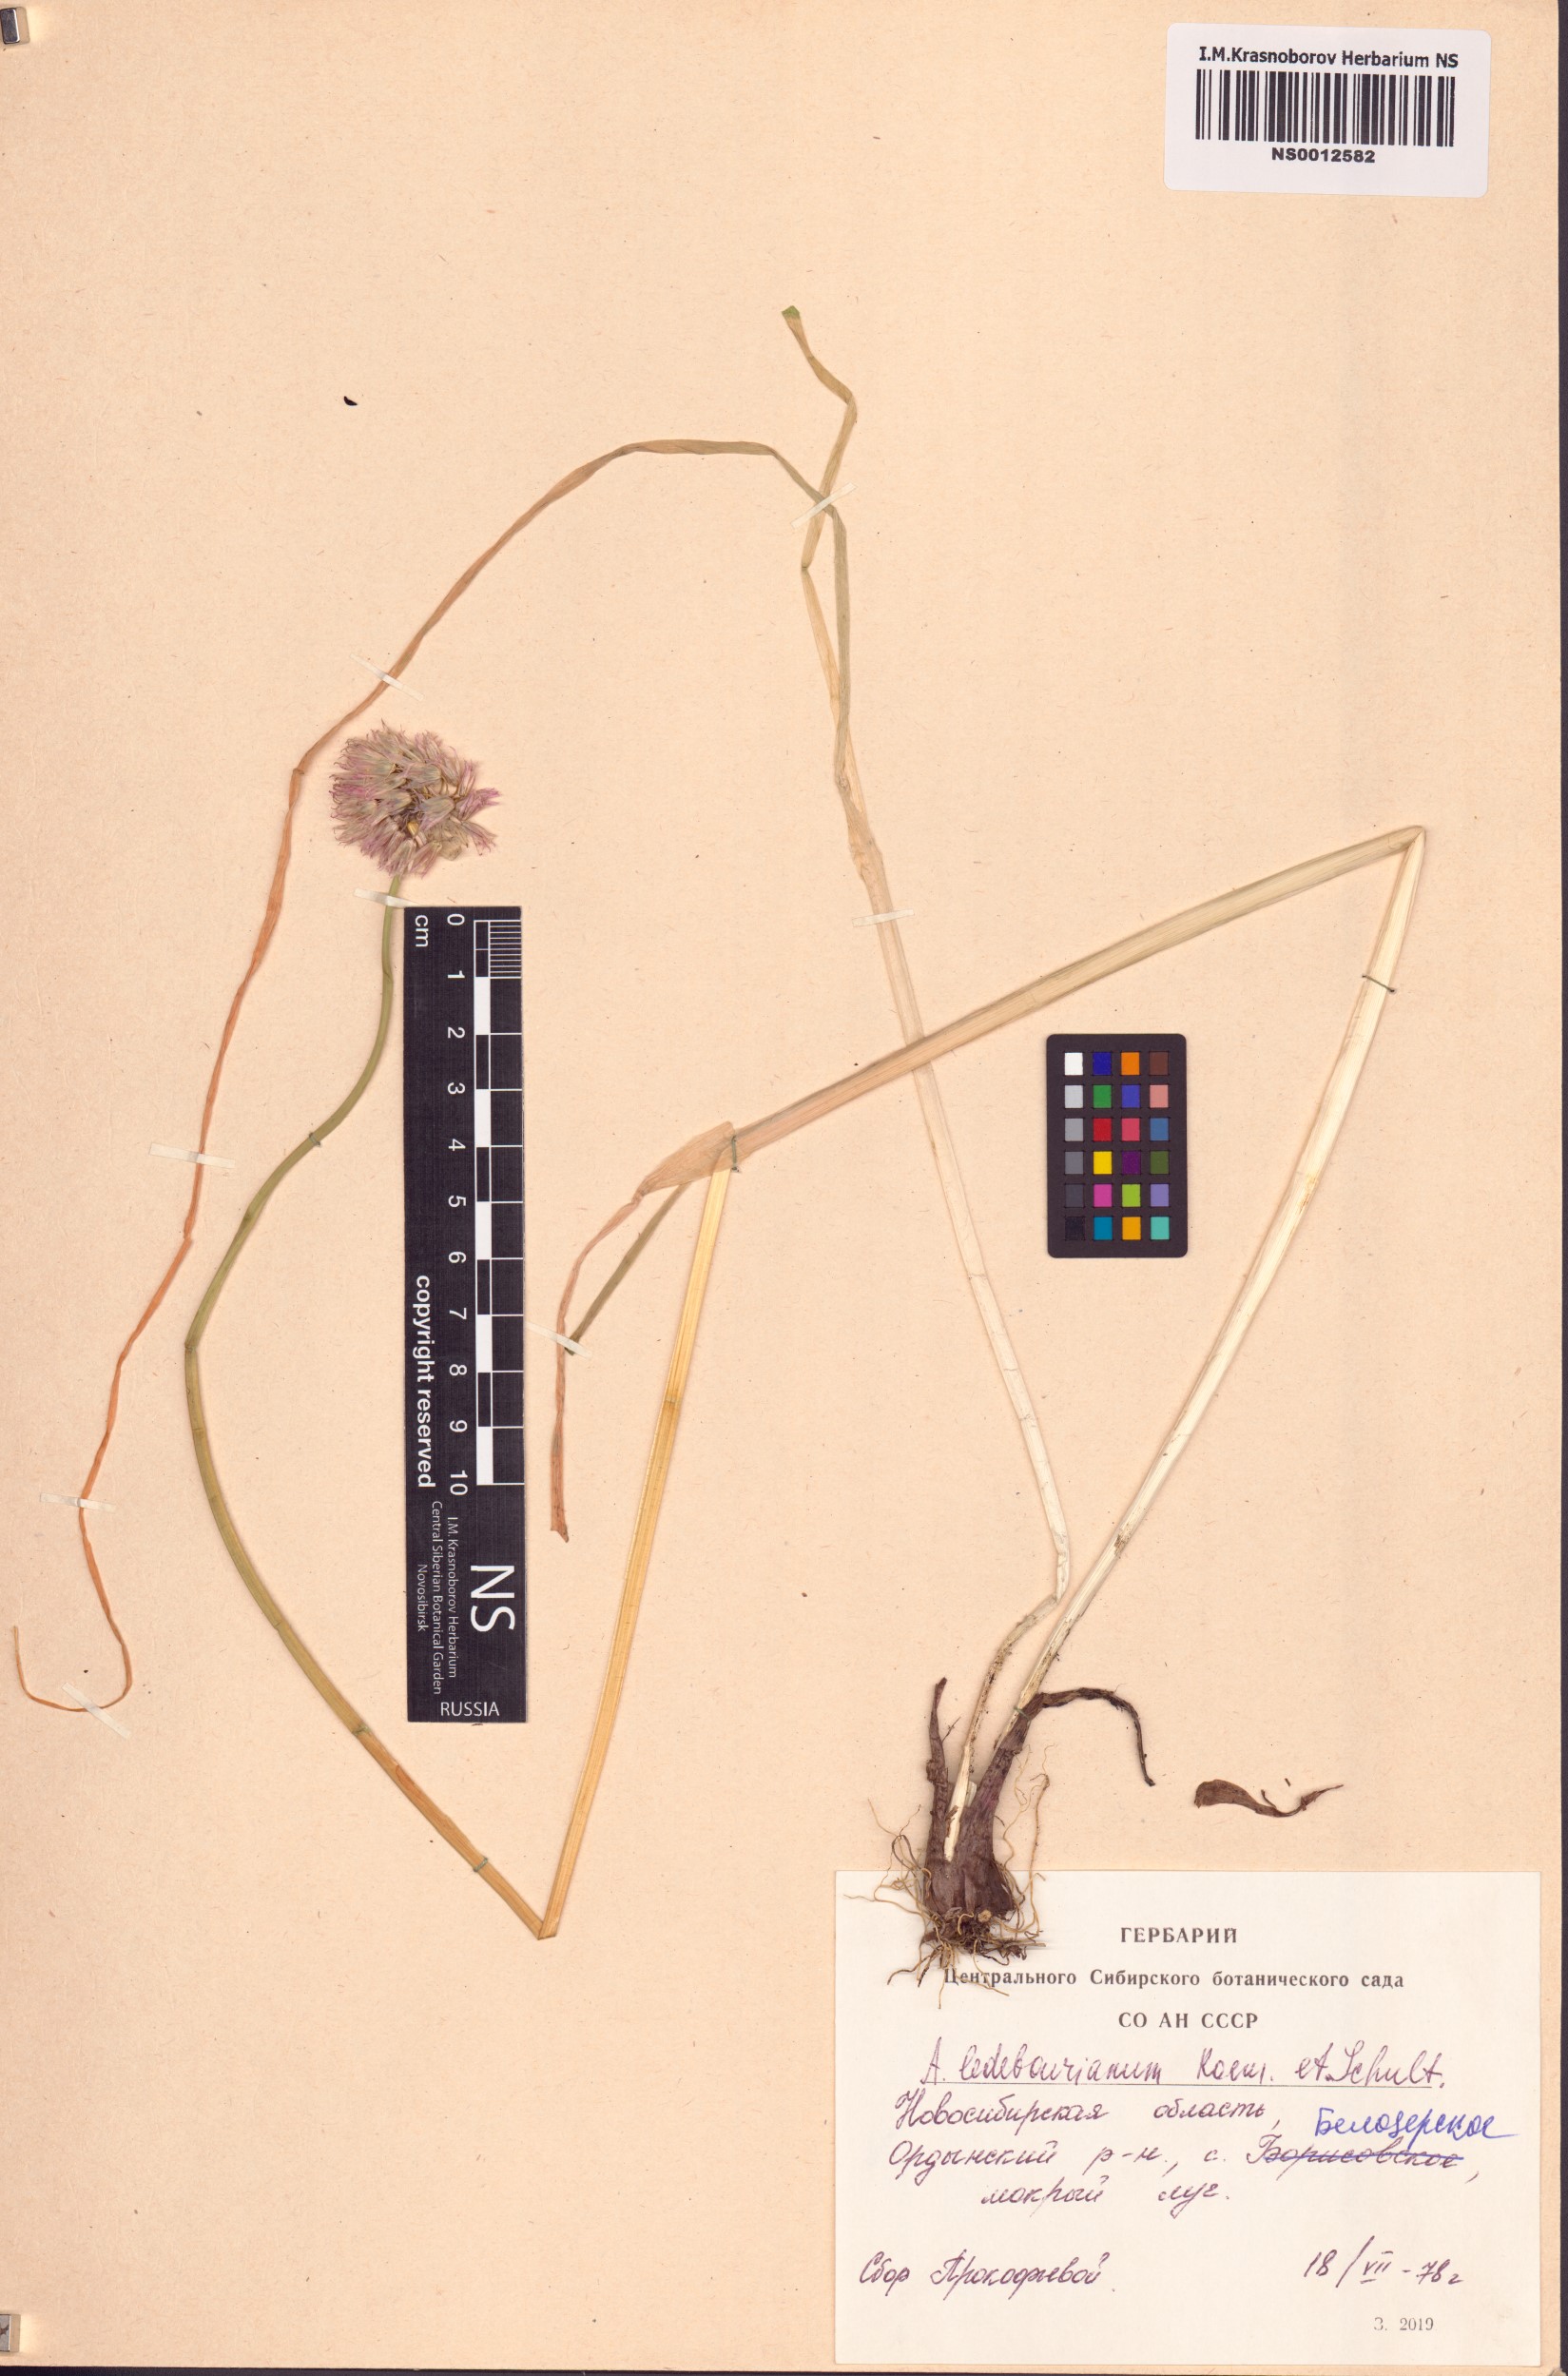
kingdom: Plantae
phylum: Tracheophyta
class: Liliopsida
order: Asparagales
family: Amaryllidaceae
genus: Allium
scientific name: Allium ledebourianum
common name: Ledebour chive
